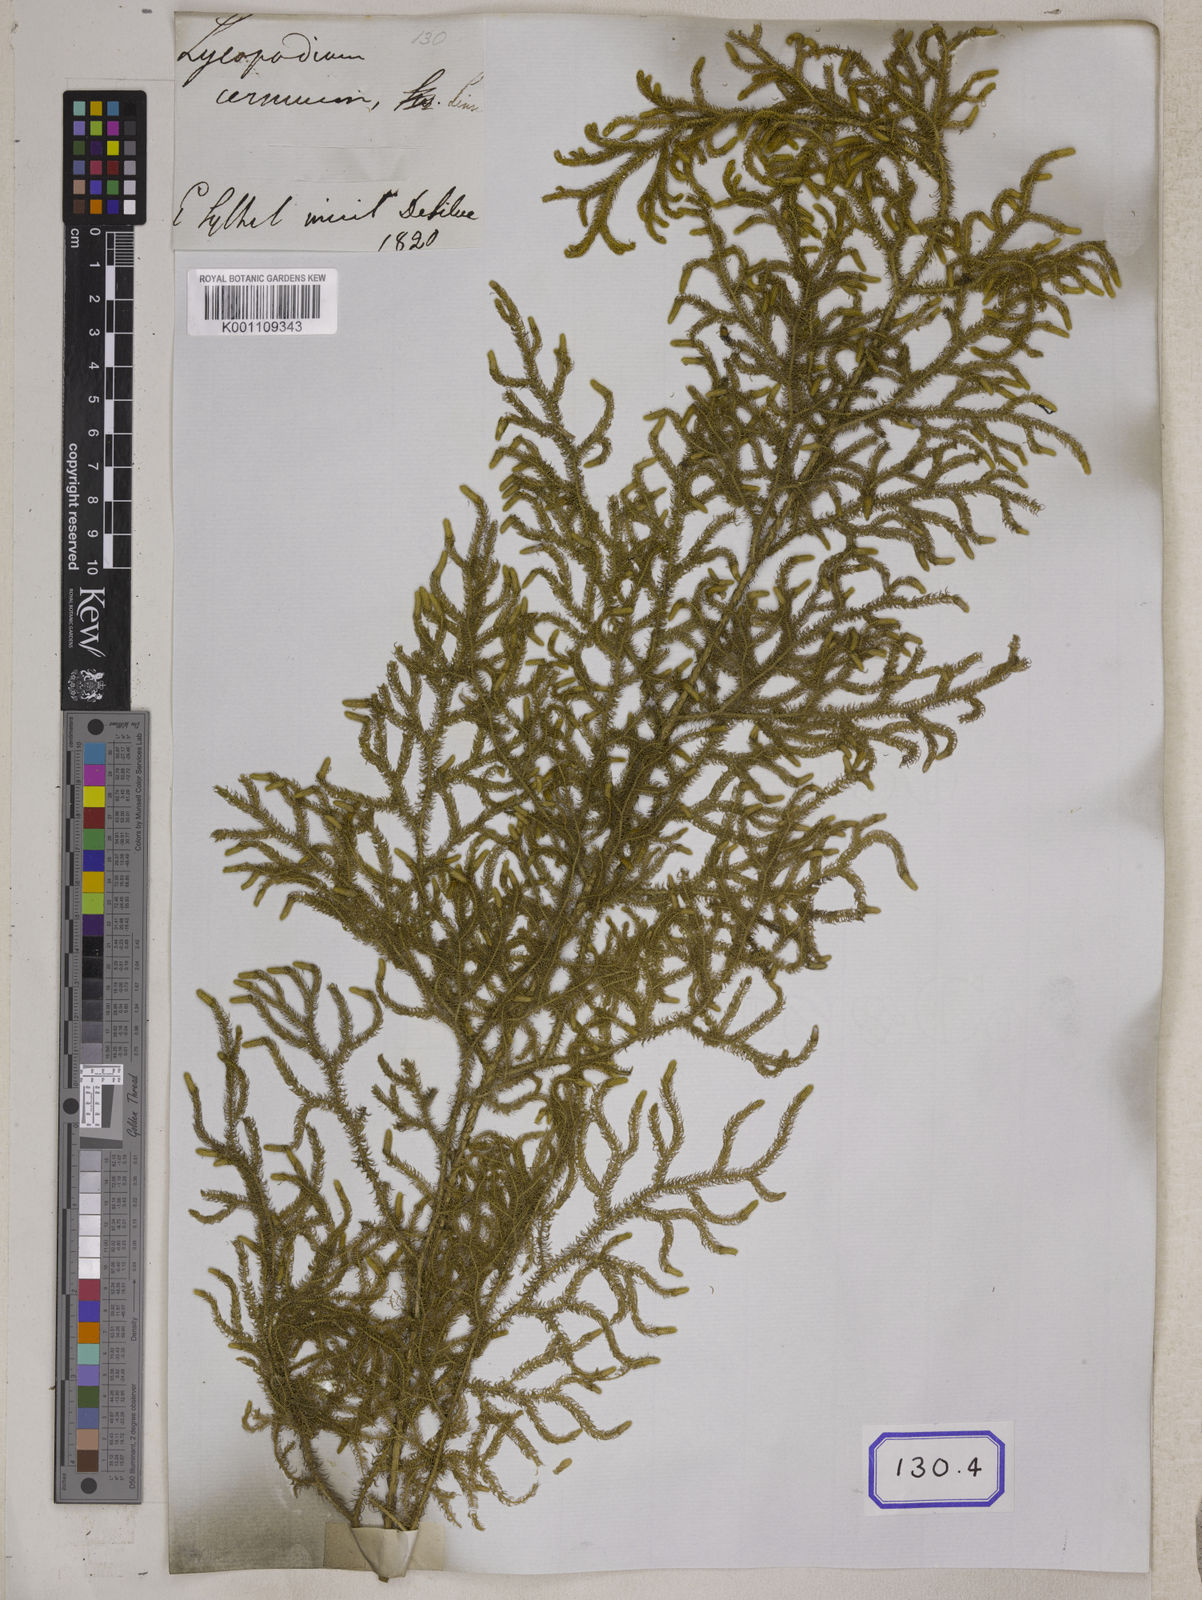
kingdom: Plantae
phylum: Tracheophyta
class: Lycopodiopsida
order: Lycopodiales
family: Lycopodiaceae
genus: Palhinhaea
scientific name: Palhinhaea cernua
